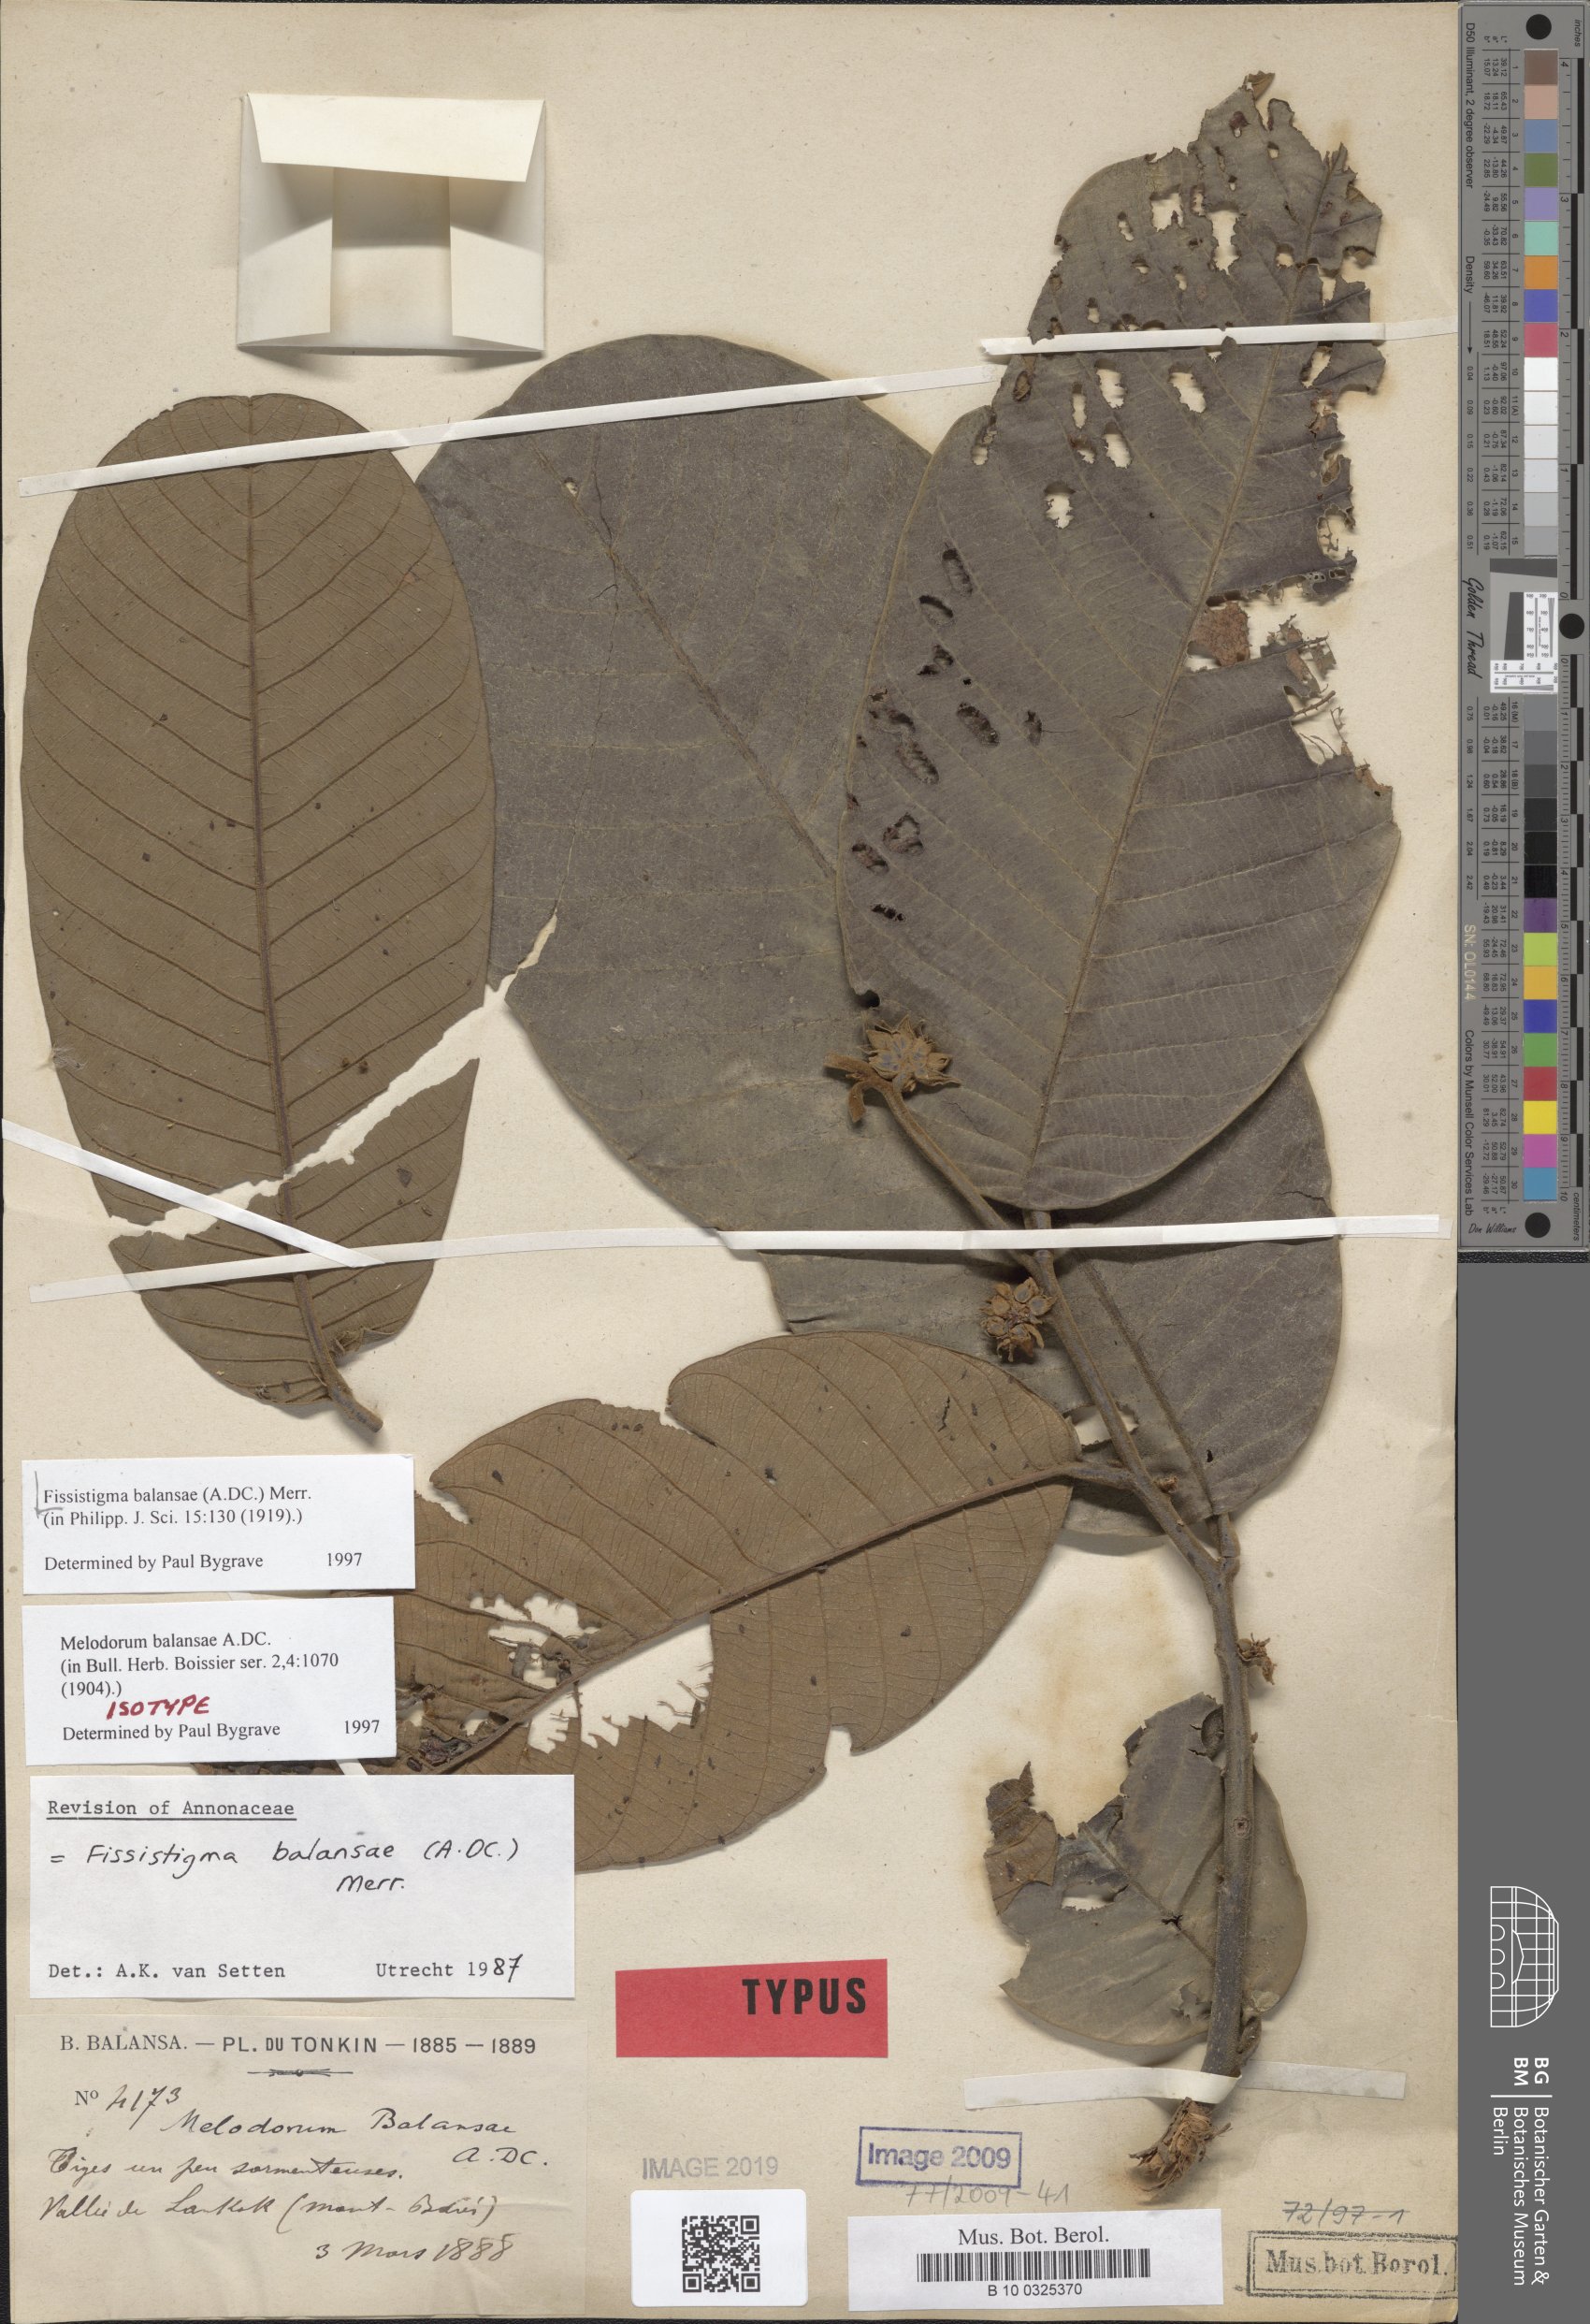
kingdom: Plantae
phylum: Tracheophyta
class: Magnoliopsida
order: Magnoliales
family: Annonaceae
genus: Fissistigma
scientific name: Fissistigma balansae
